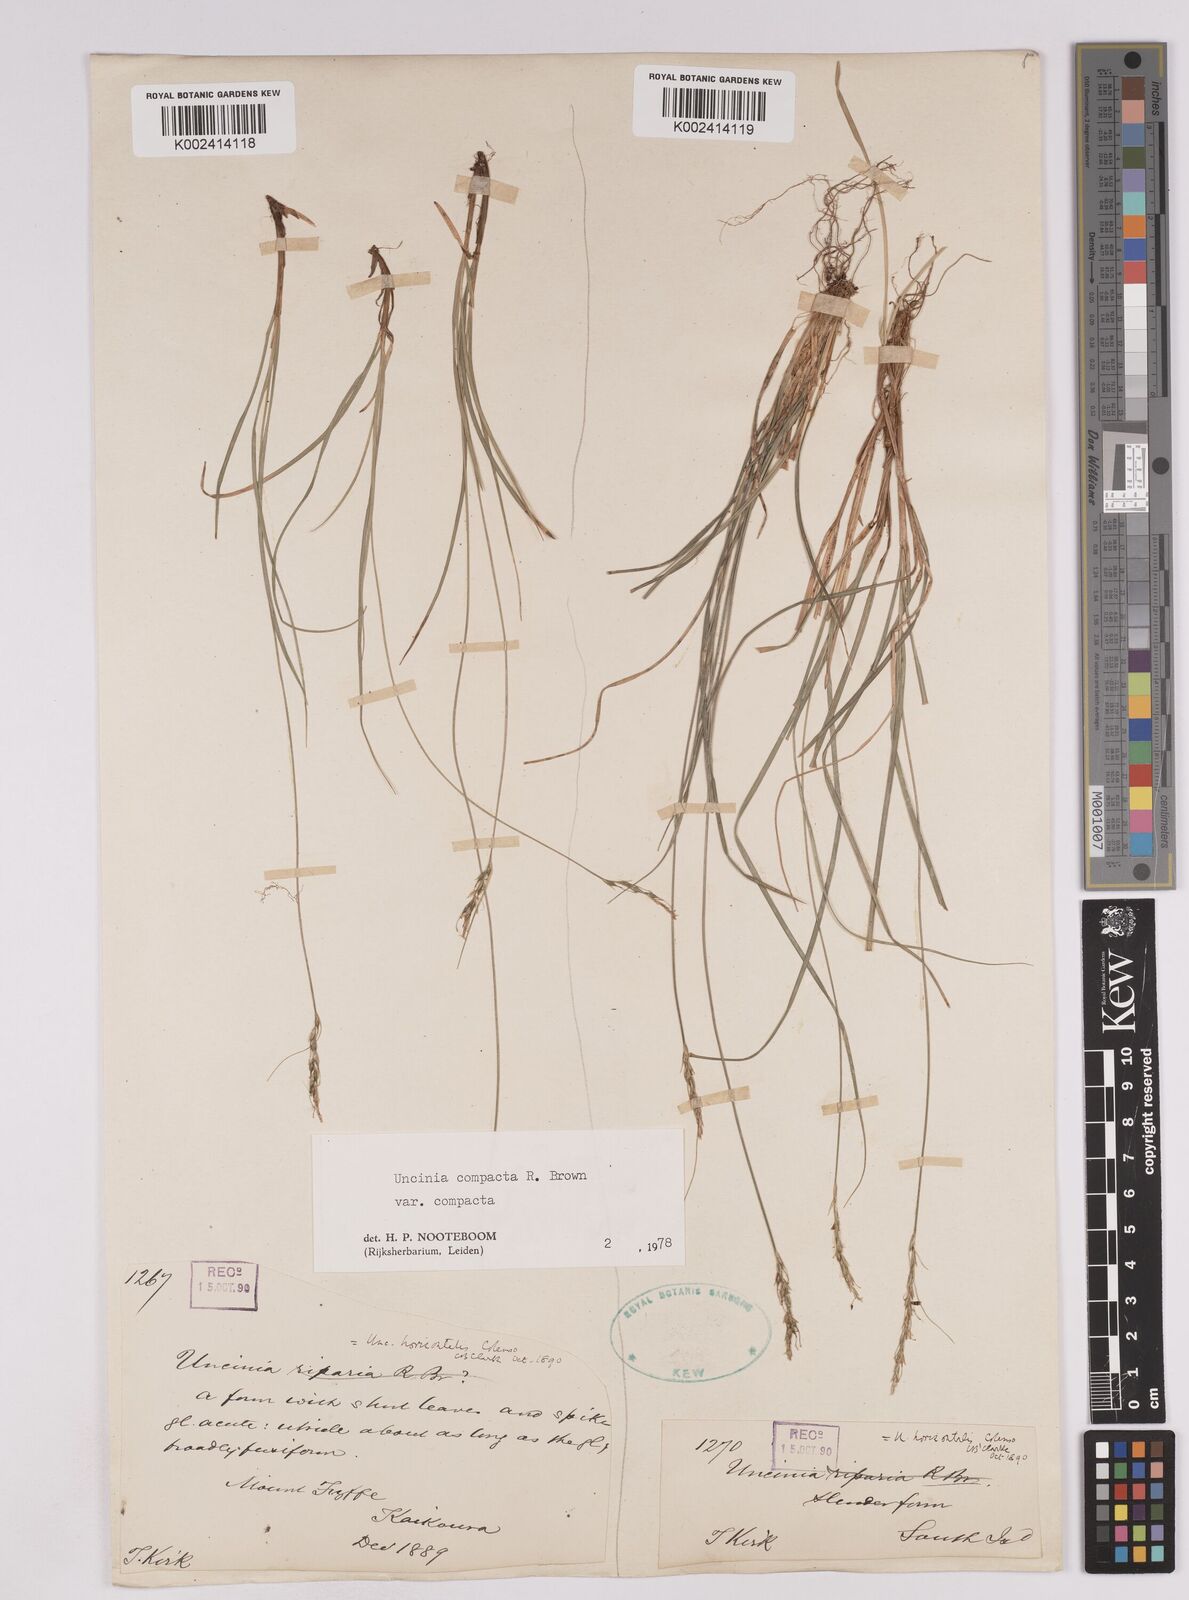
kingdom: Plantae
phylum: Tracheophyta
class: Liliopsida
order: Poales
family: Cyperaceae
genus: Carex
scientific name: Carex austrocompacta
